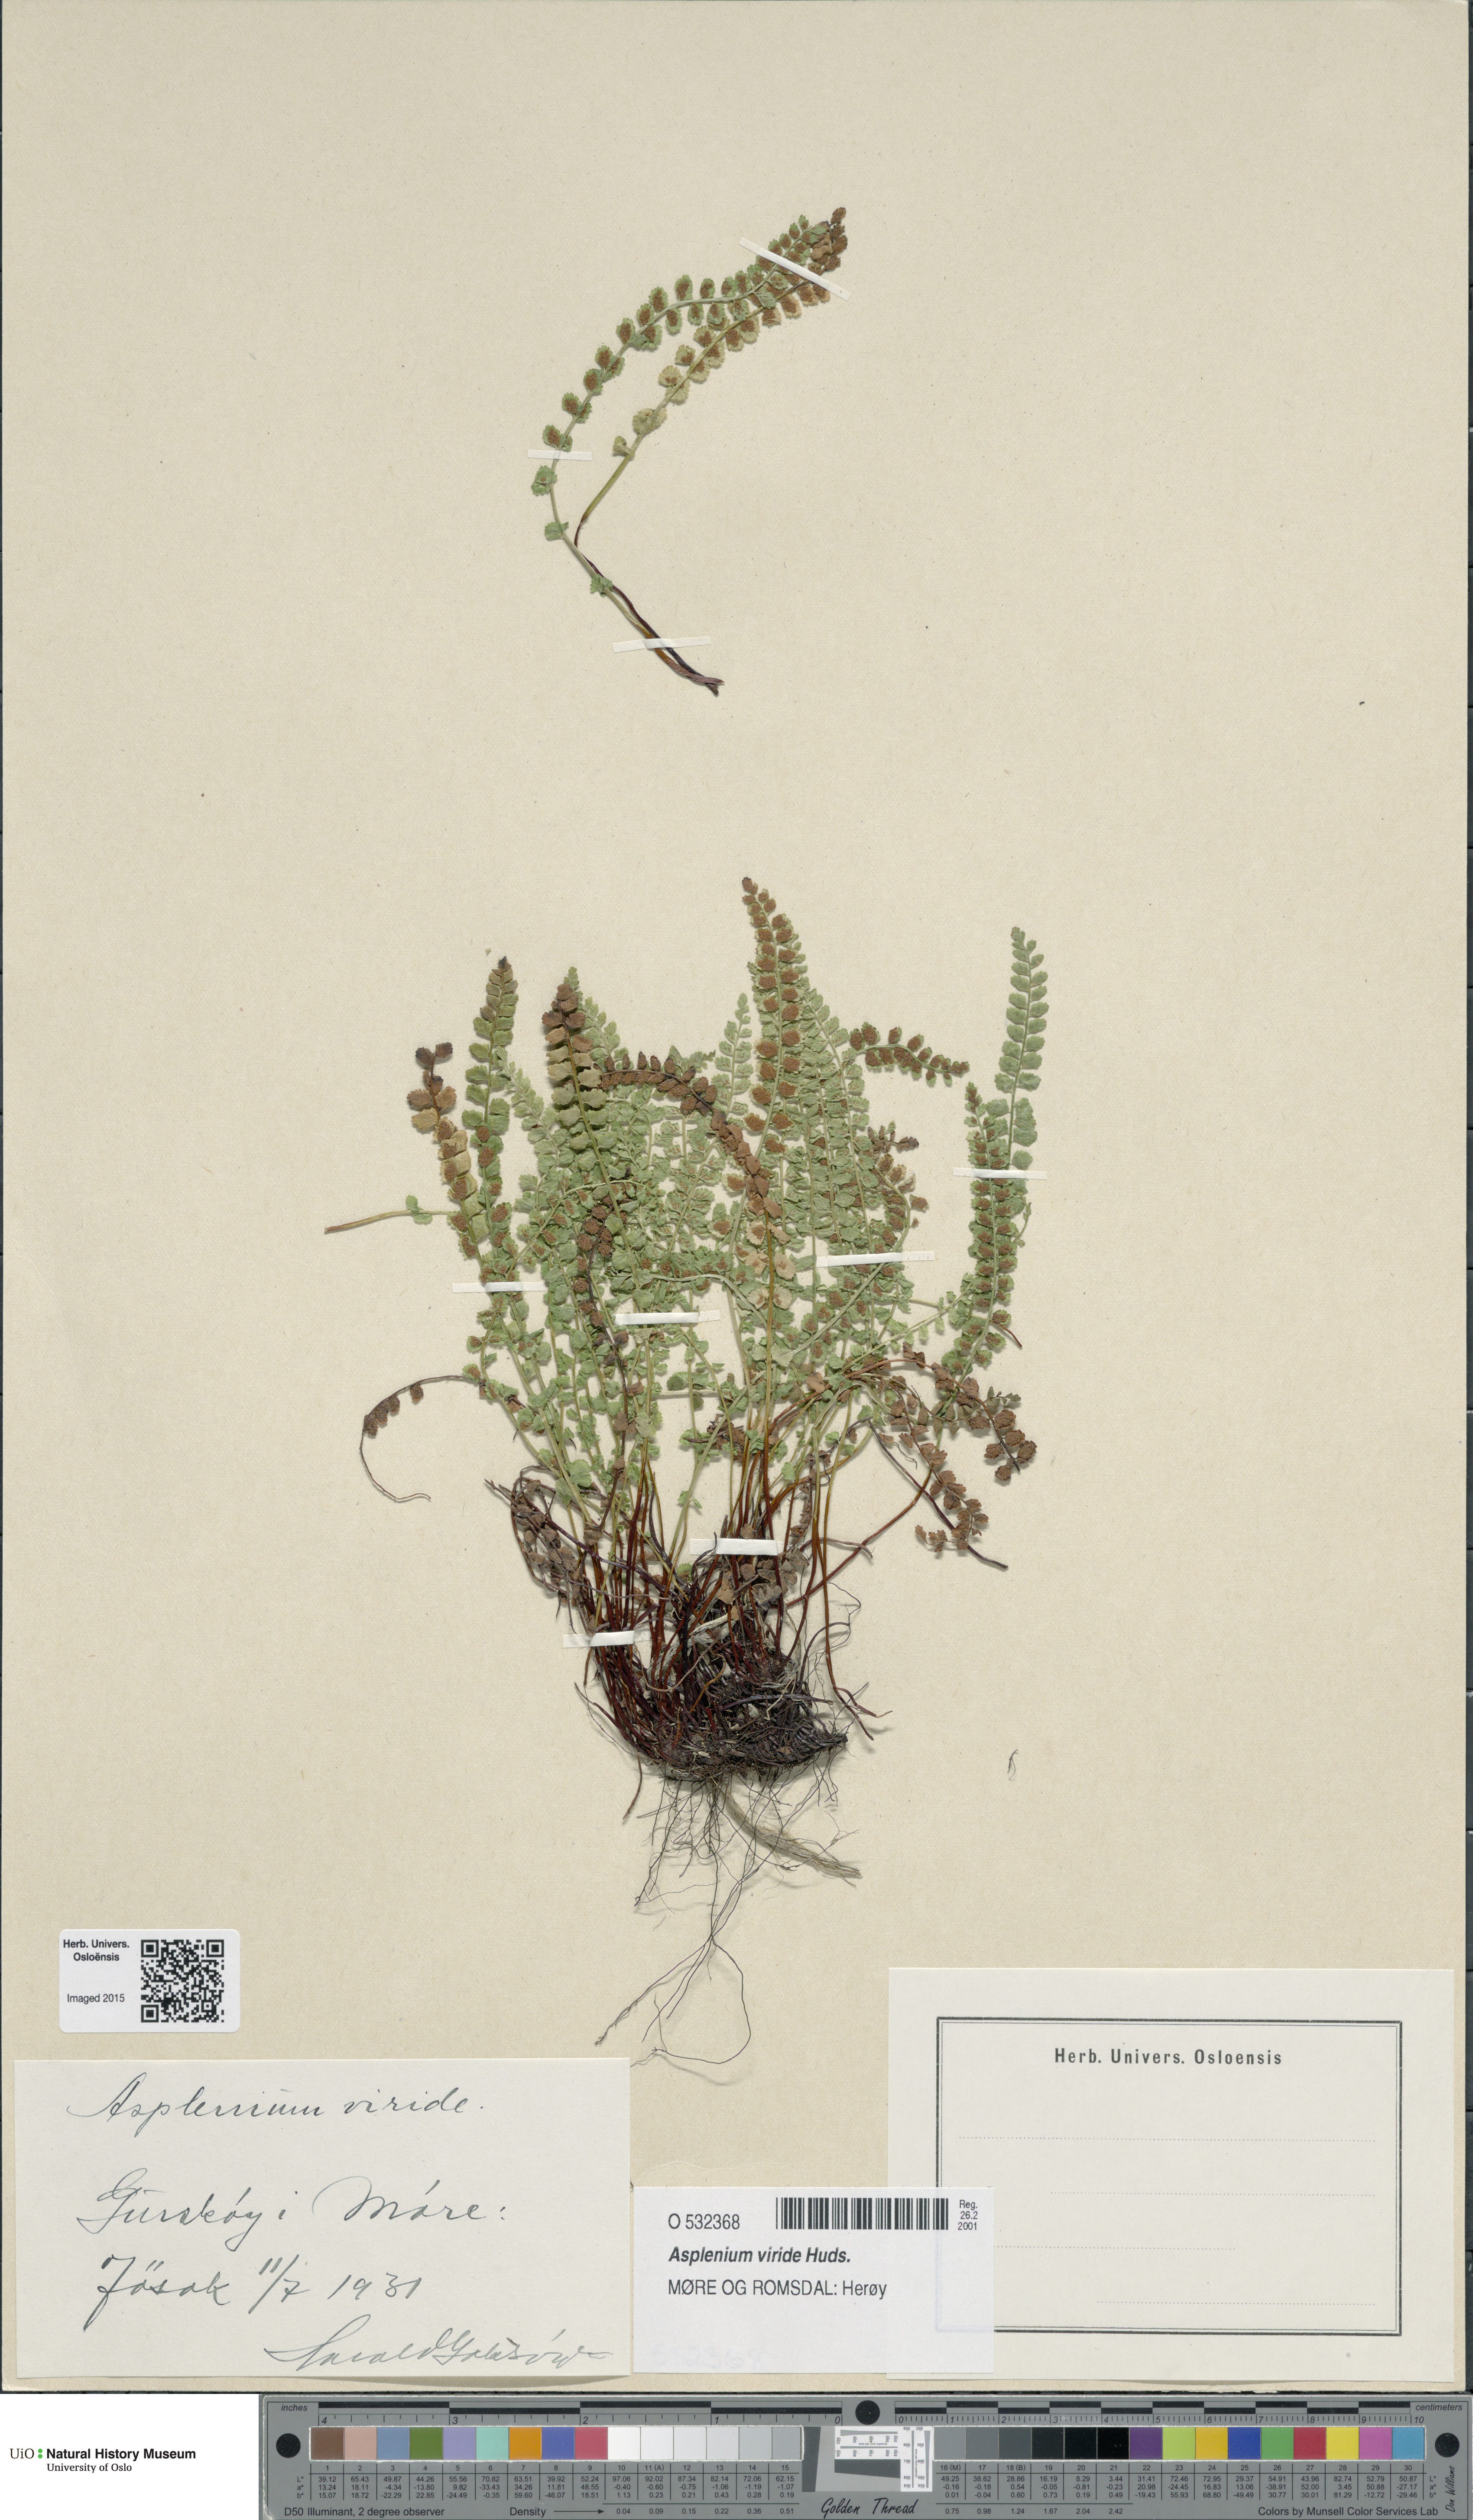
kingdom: Plantae
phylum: Tracheophyta
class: Polypodiopsida
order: Polypodiales
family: Aspleniaceae
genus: Asplenium
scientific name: Asplenium viride
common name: Green spleenwort
